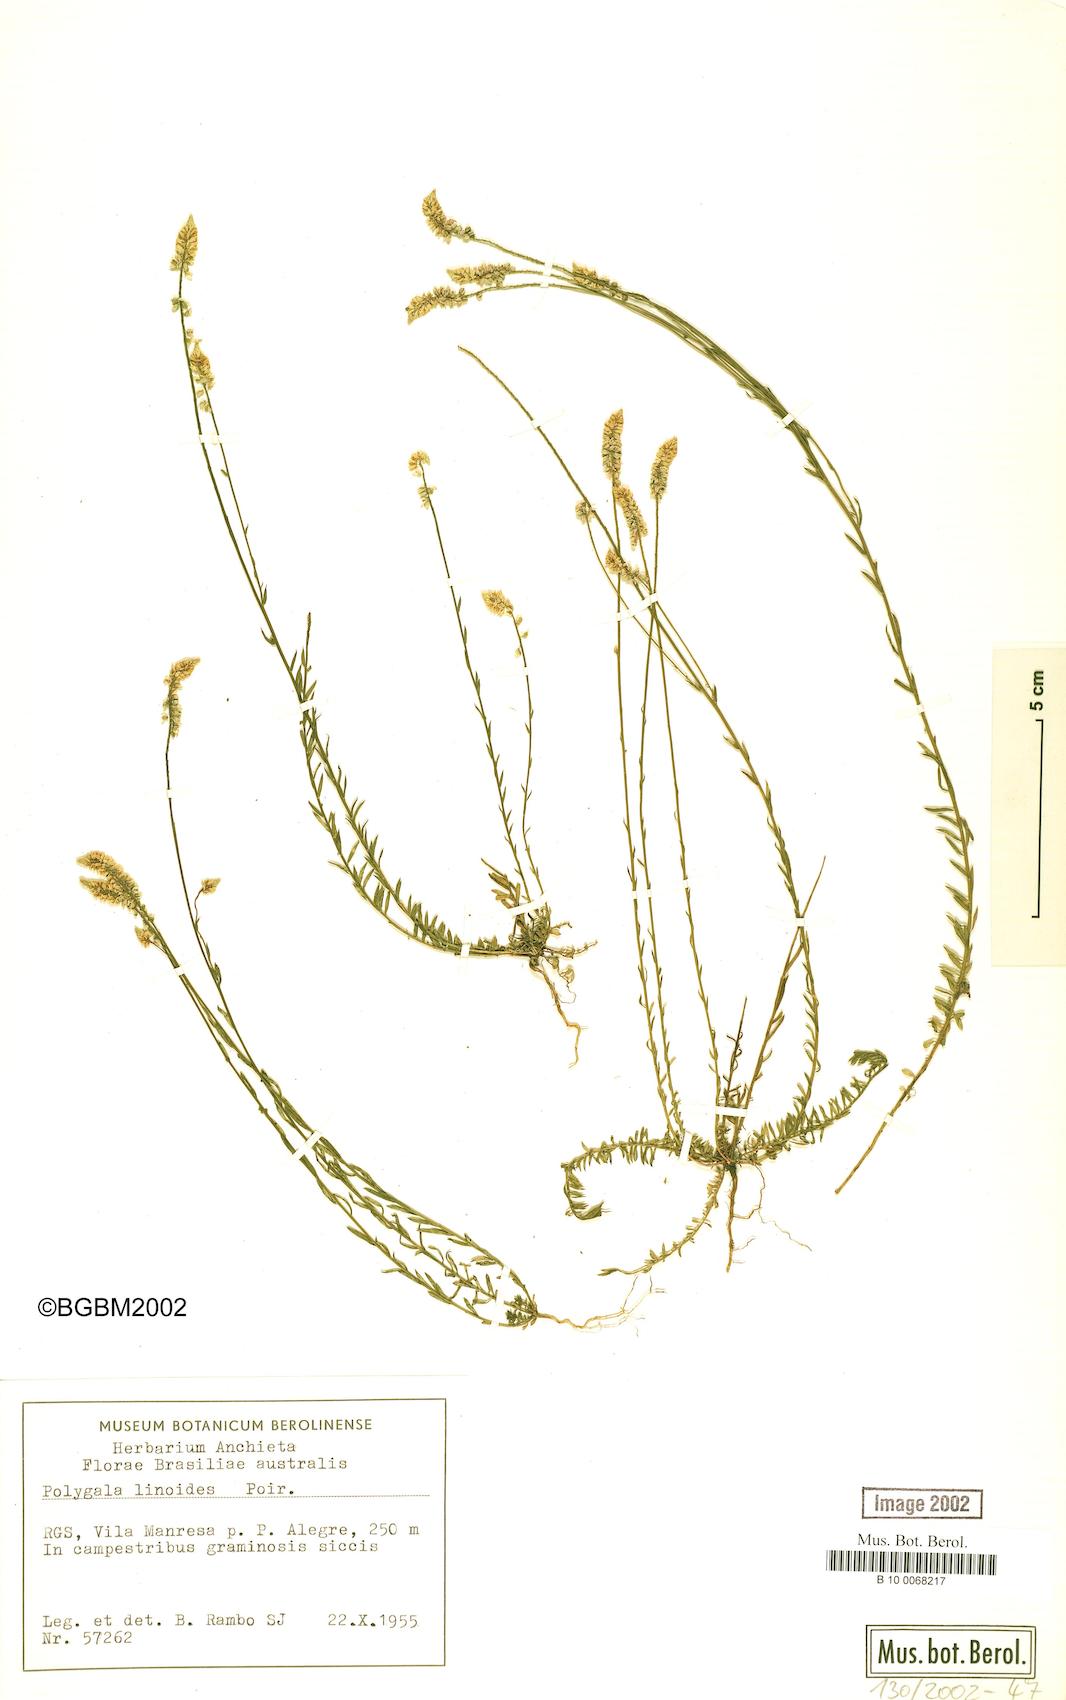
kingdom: Plantae
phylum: Tracheophyta
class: Magnoliopsida
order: Fabales
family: Polygalaceae
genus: Polygala
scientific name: Polygala linoides
